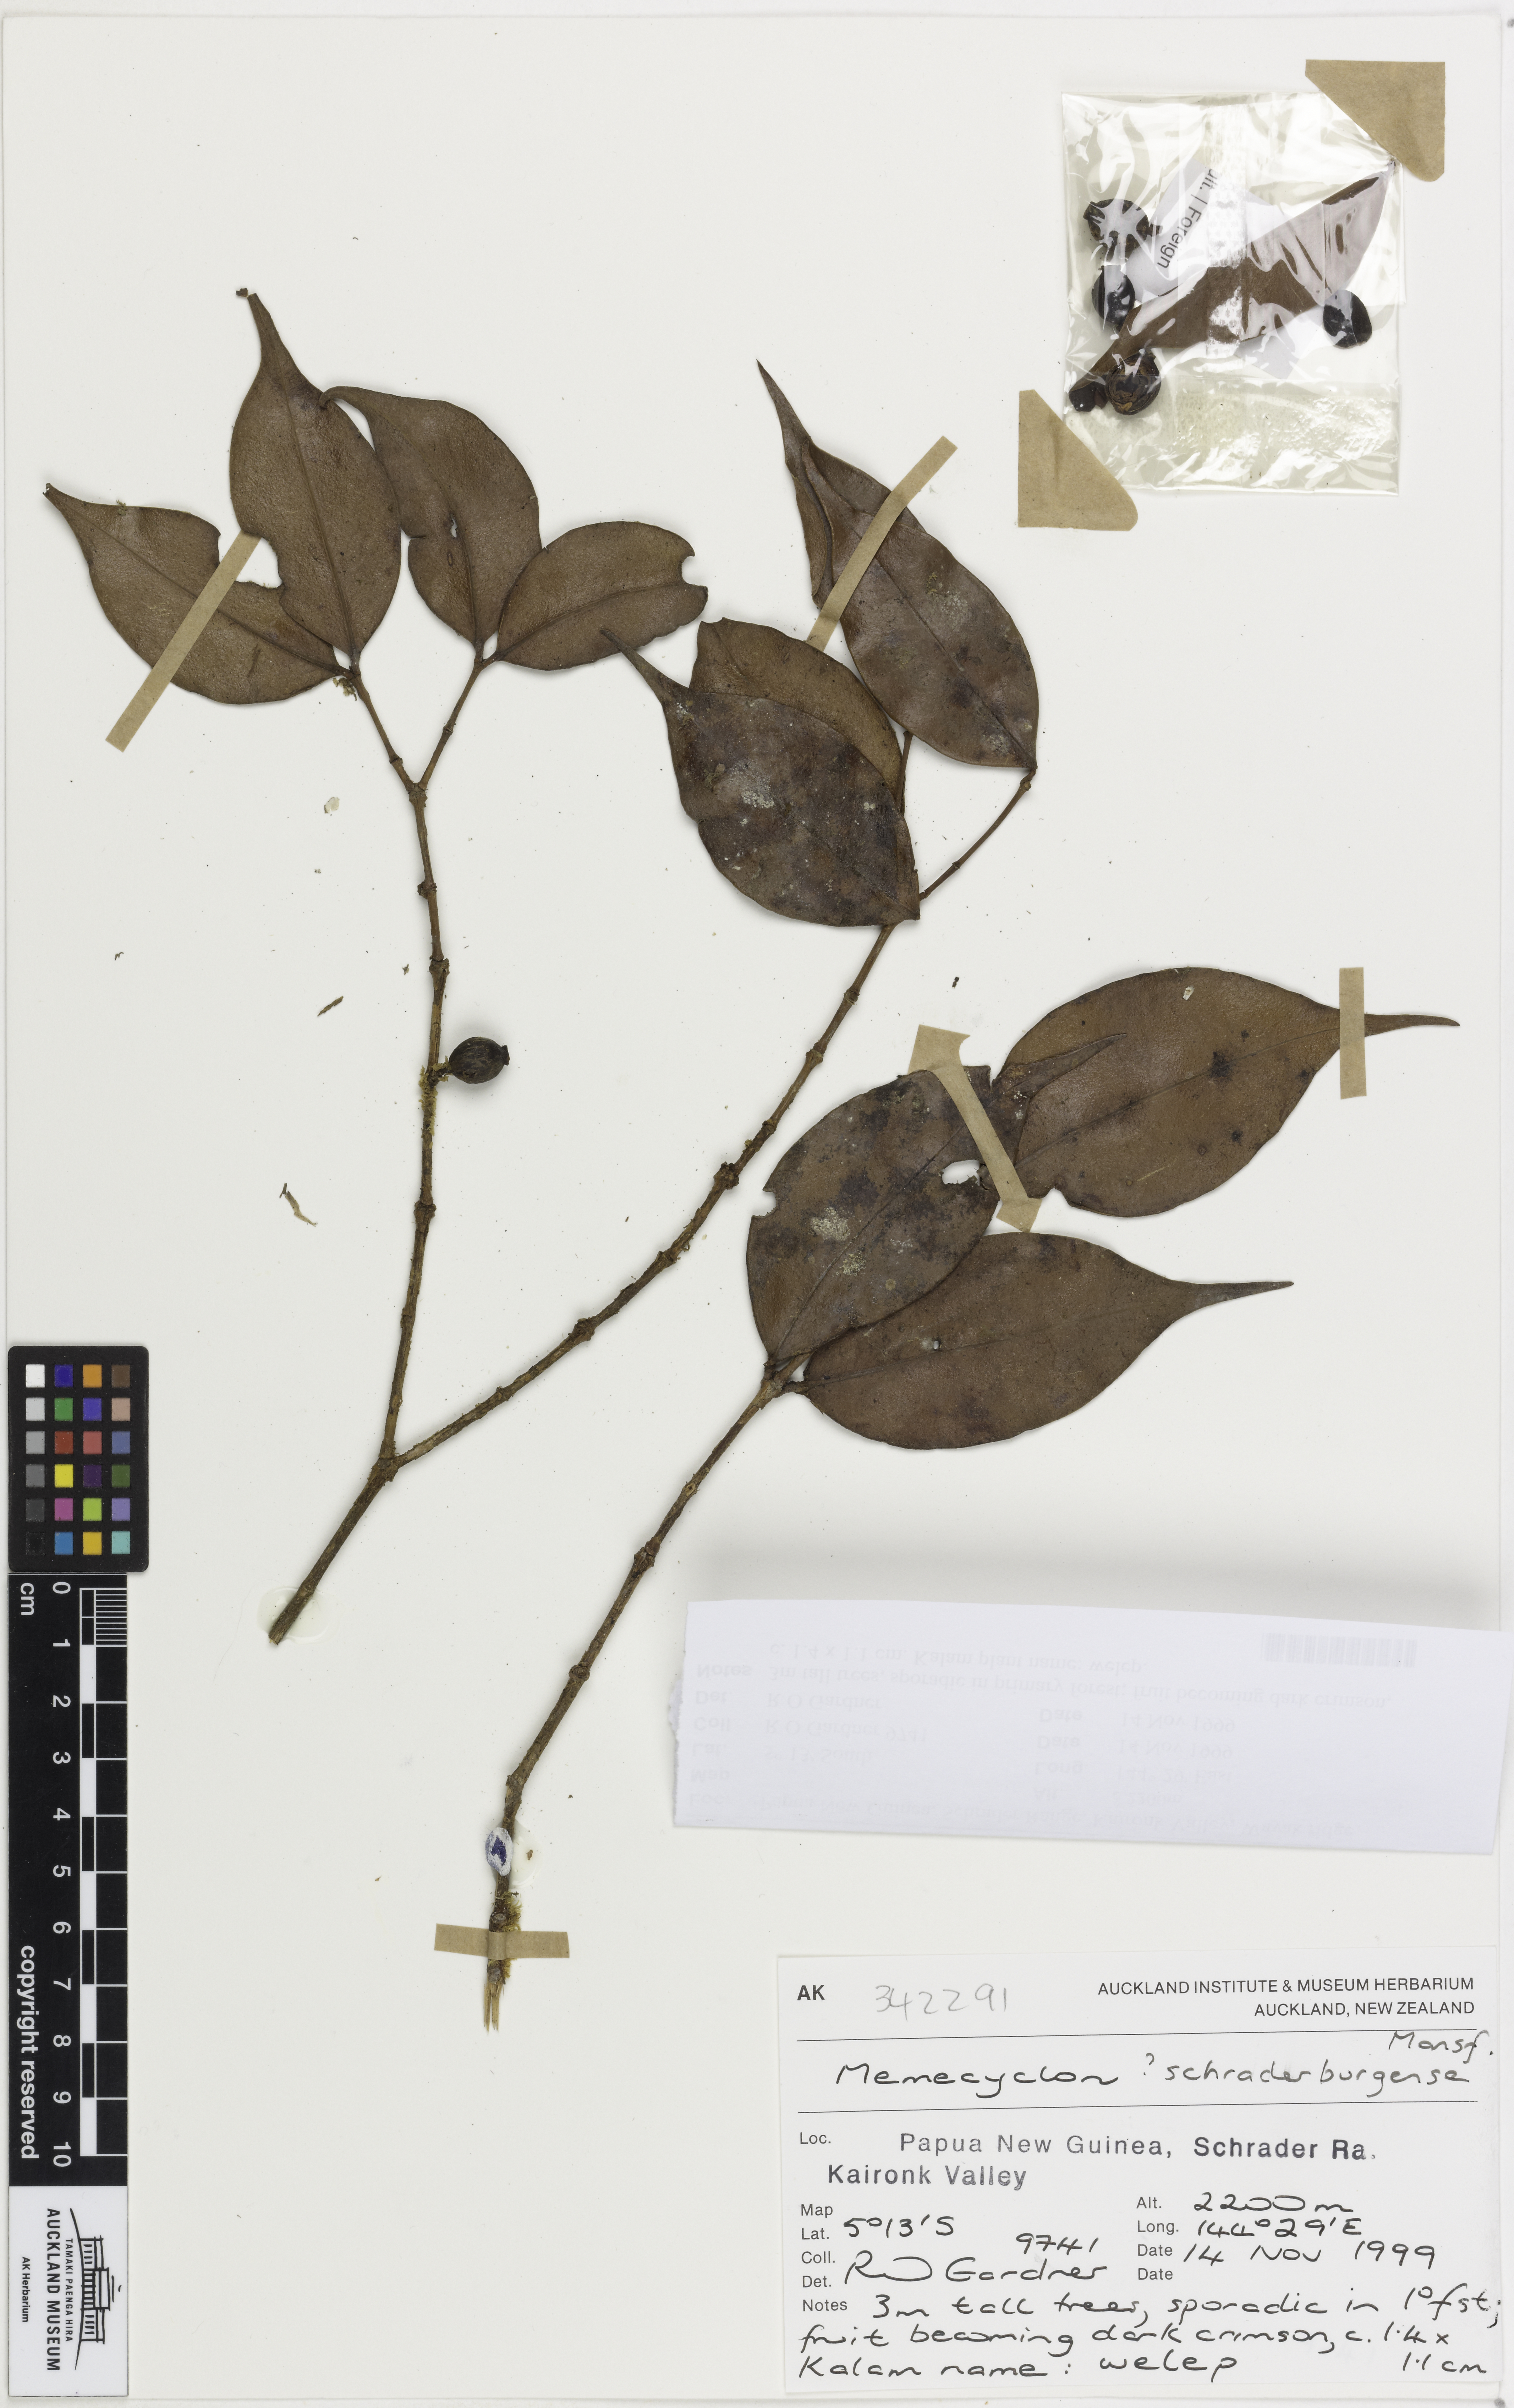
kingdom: Plantae
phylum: Tracheophyta
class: Magnoliopsida
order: Myrtales
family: Melastomataceae
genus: Memecylon
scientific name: Memecylon schraderbergense
